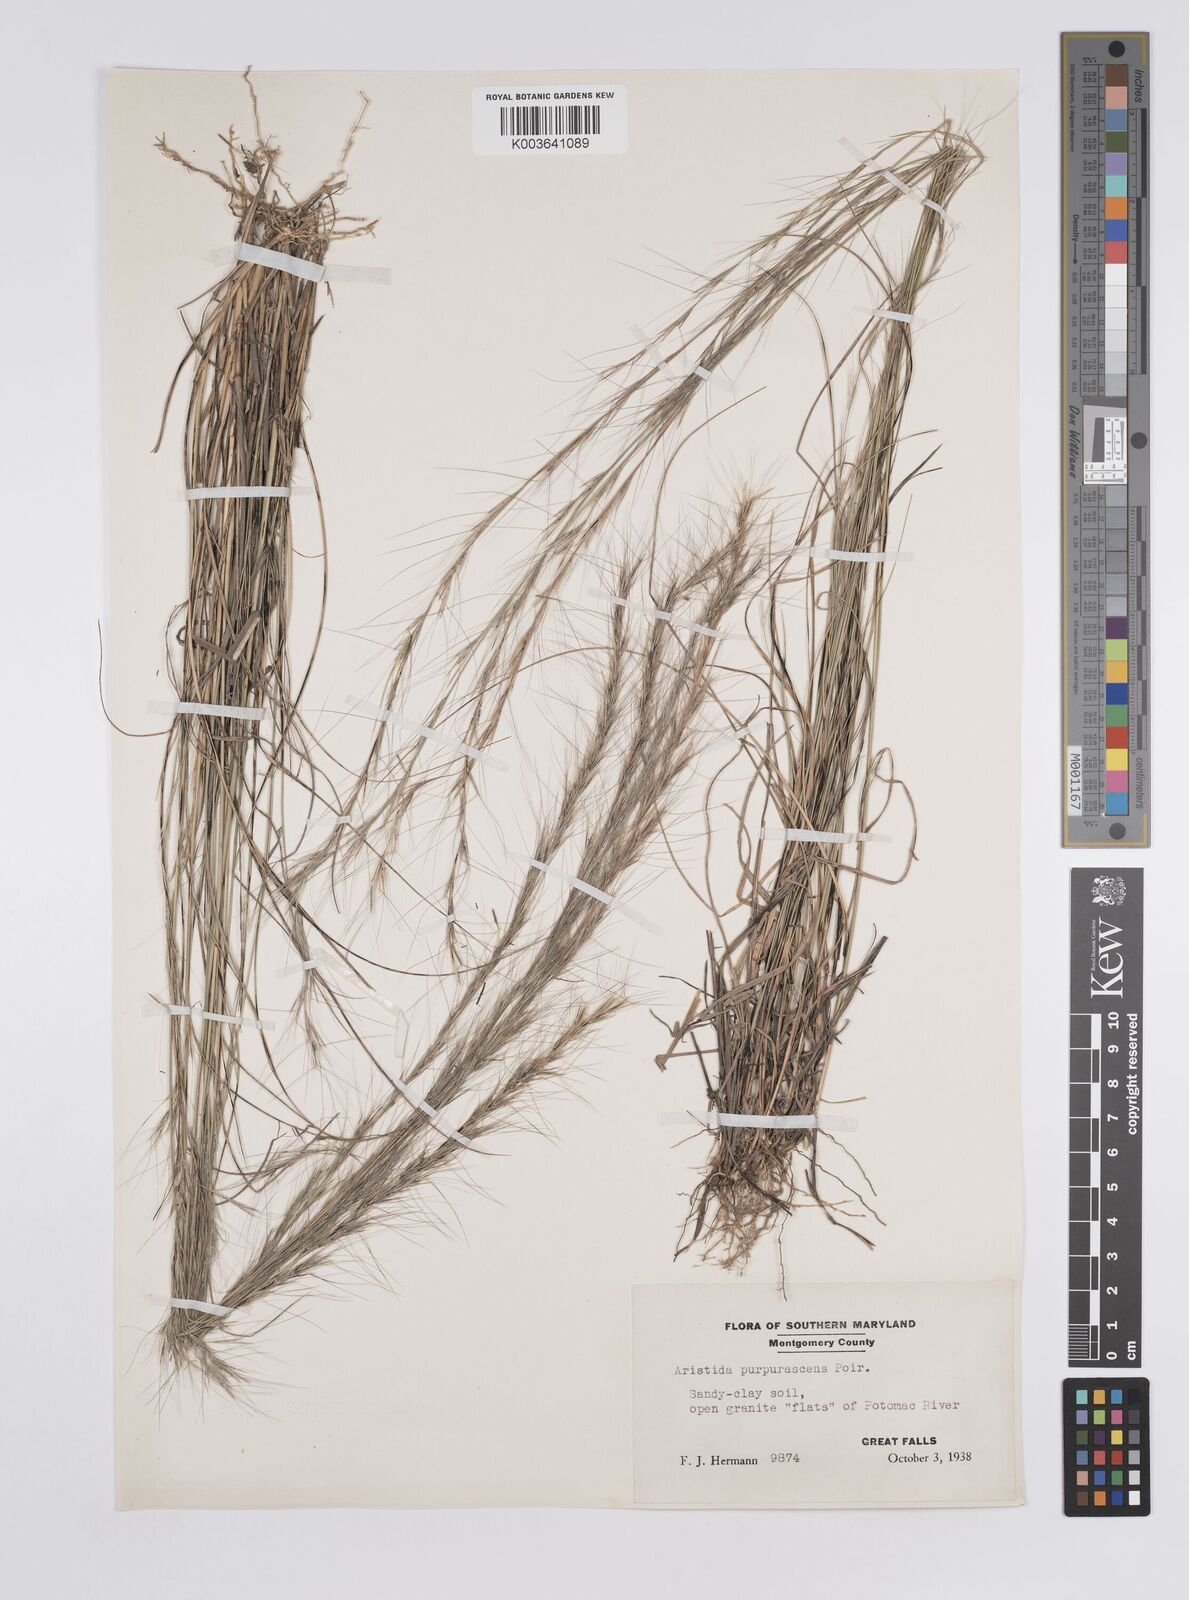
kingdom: Plantae
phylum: Tracheophyta
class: Liliopsida
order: Poales
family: Poaceae
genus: Aristida
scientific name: Aristida purpurascens
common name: Arrow-feather
